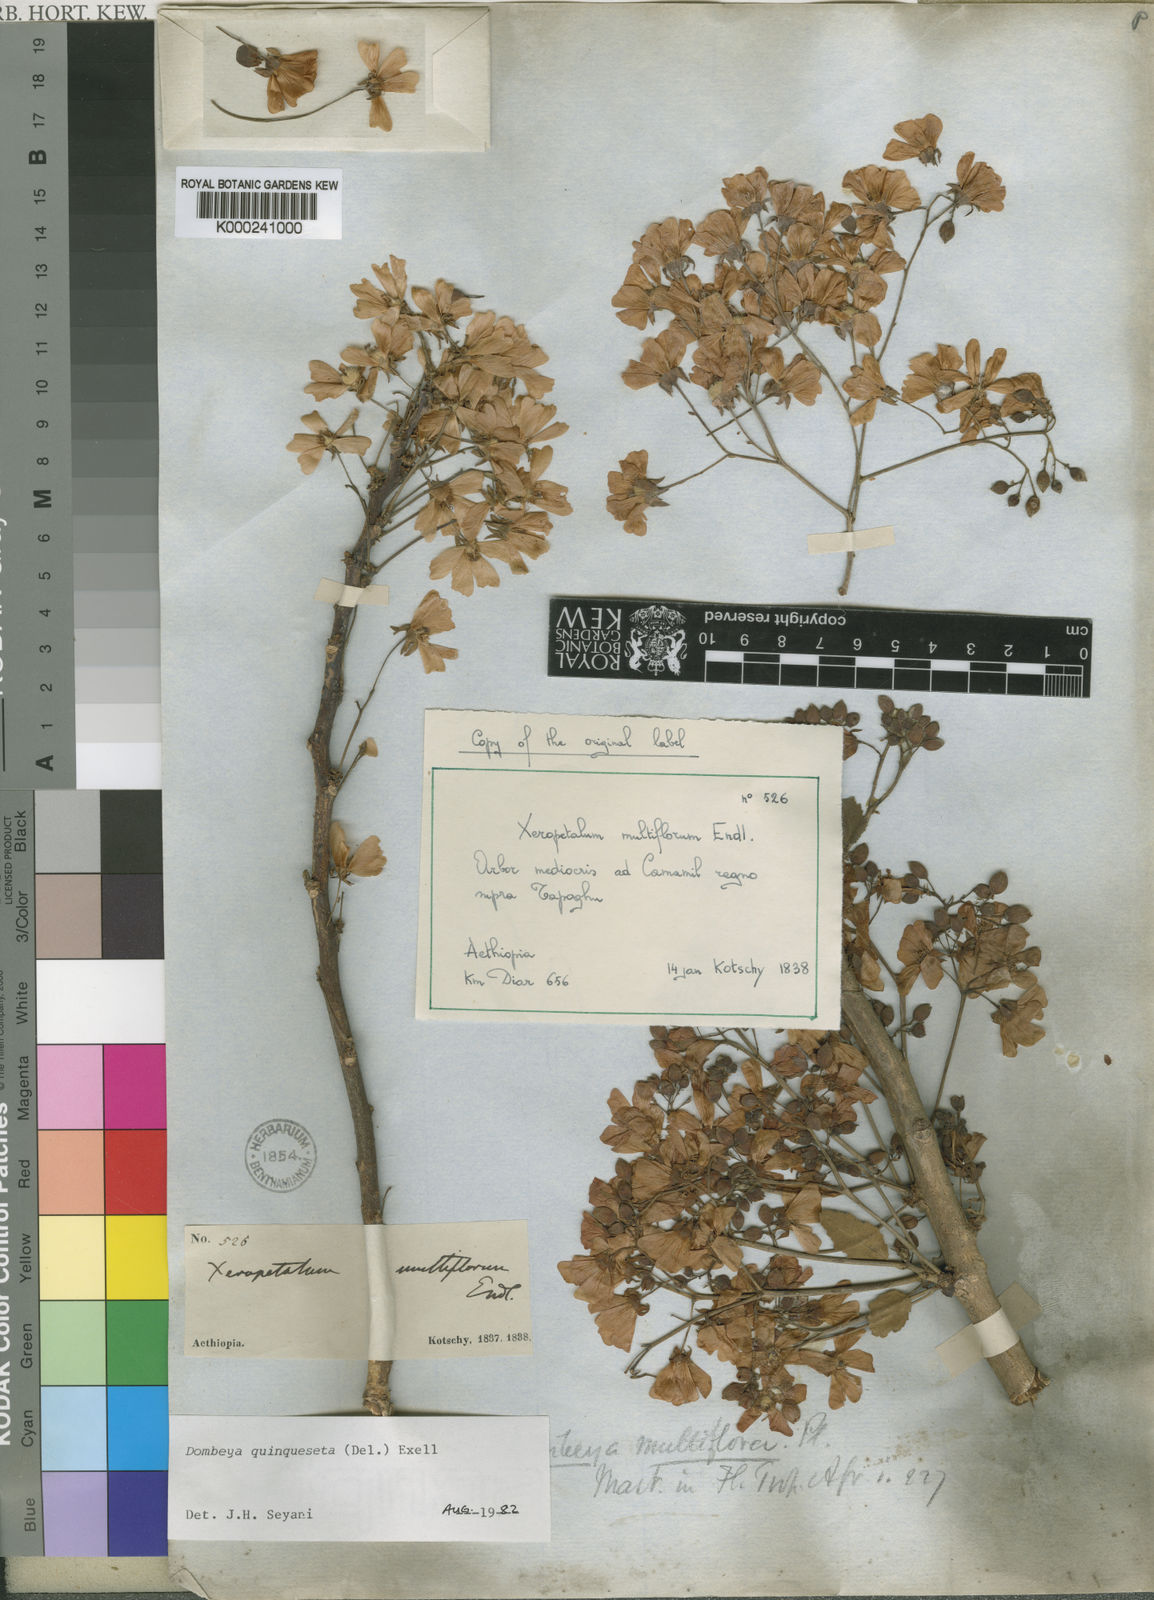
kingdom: Plantae
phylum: Tracheophyta
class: Magnoliopsida
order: Malvales
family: Malvaceae
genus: Dombeya
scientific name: Dombeya quinqueseta
